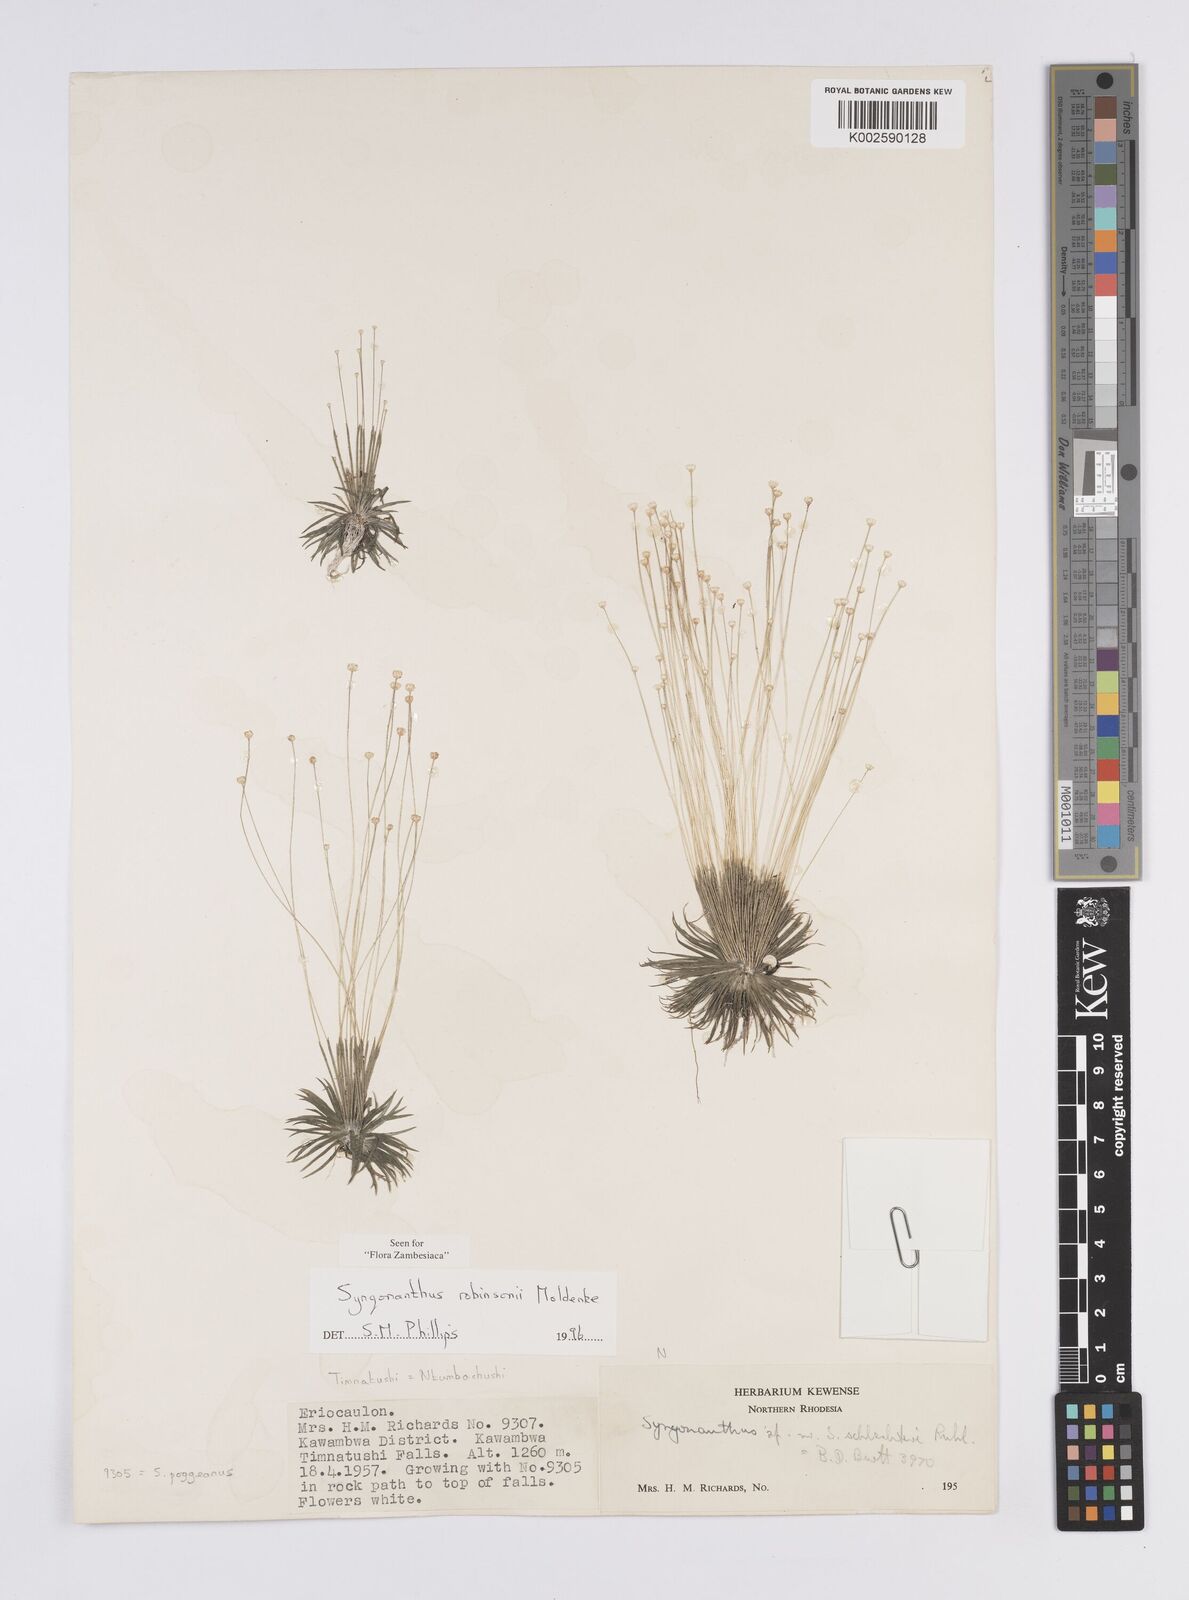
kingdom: Plantae
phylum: Tracheophyta
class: Liliopsida
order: Poales
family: Eriocaulaceae
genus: Syngonanthus
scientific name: Syngonanthus robinsonii
